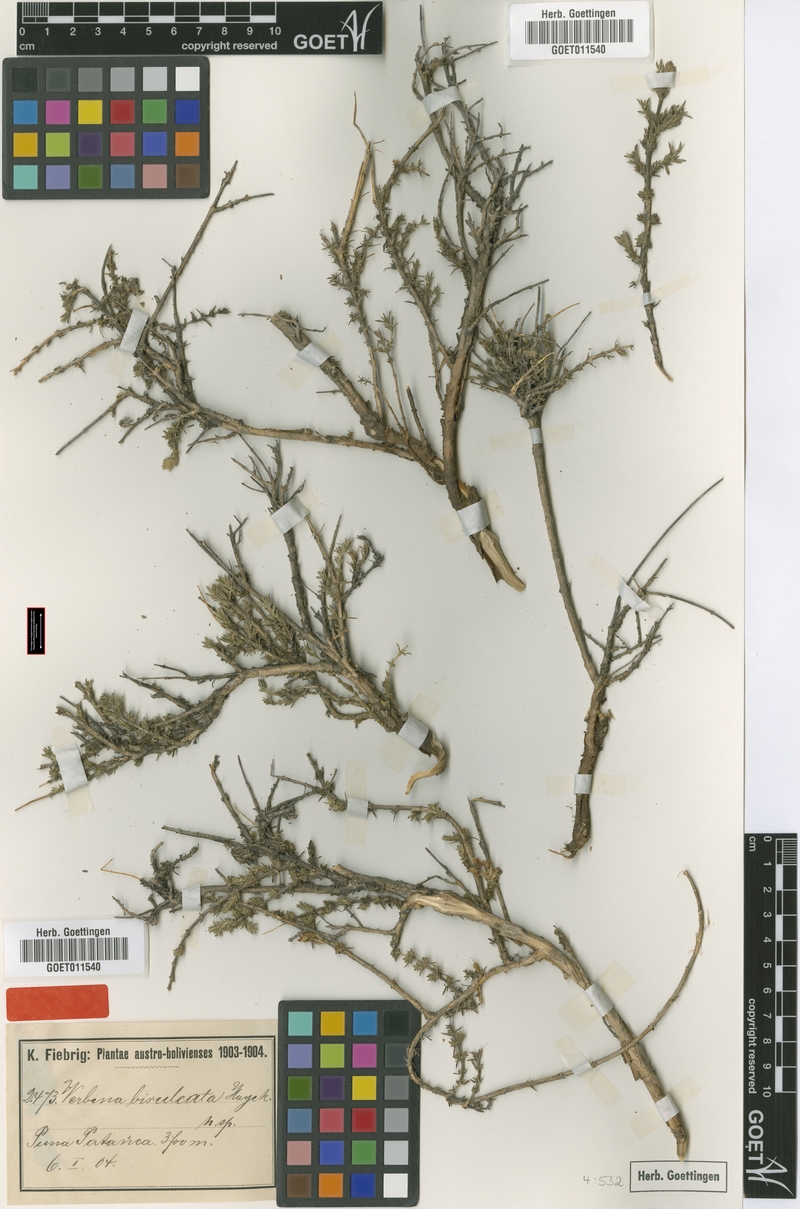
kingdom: Plantae
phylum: Tracheophyta
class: Magnoliopsida
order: Lamiales
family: Verbenaceae
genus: Junellia
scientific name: Junellia bisulcata
